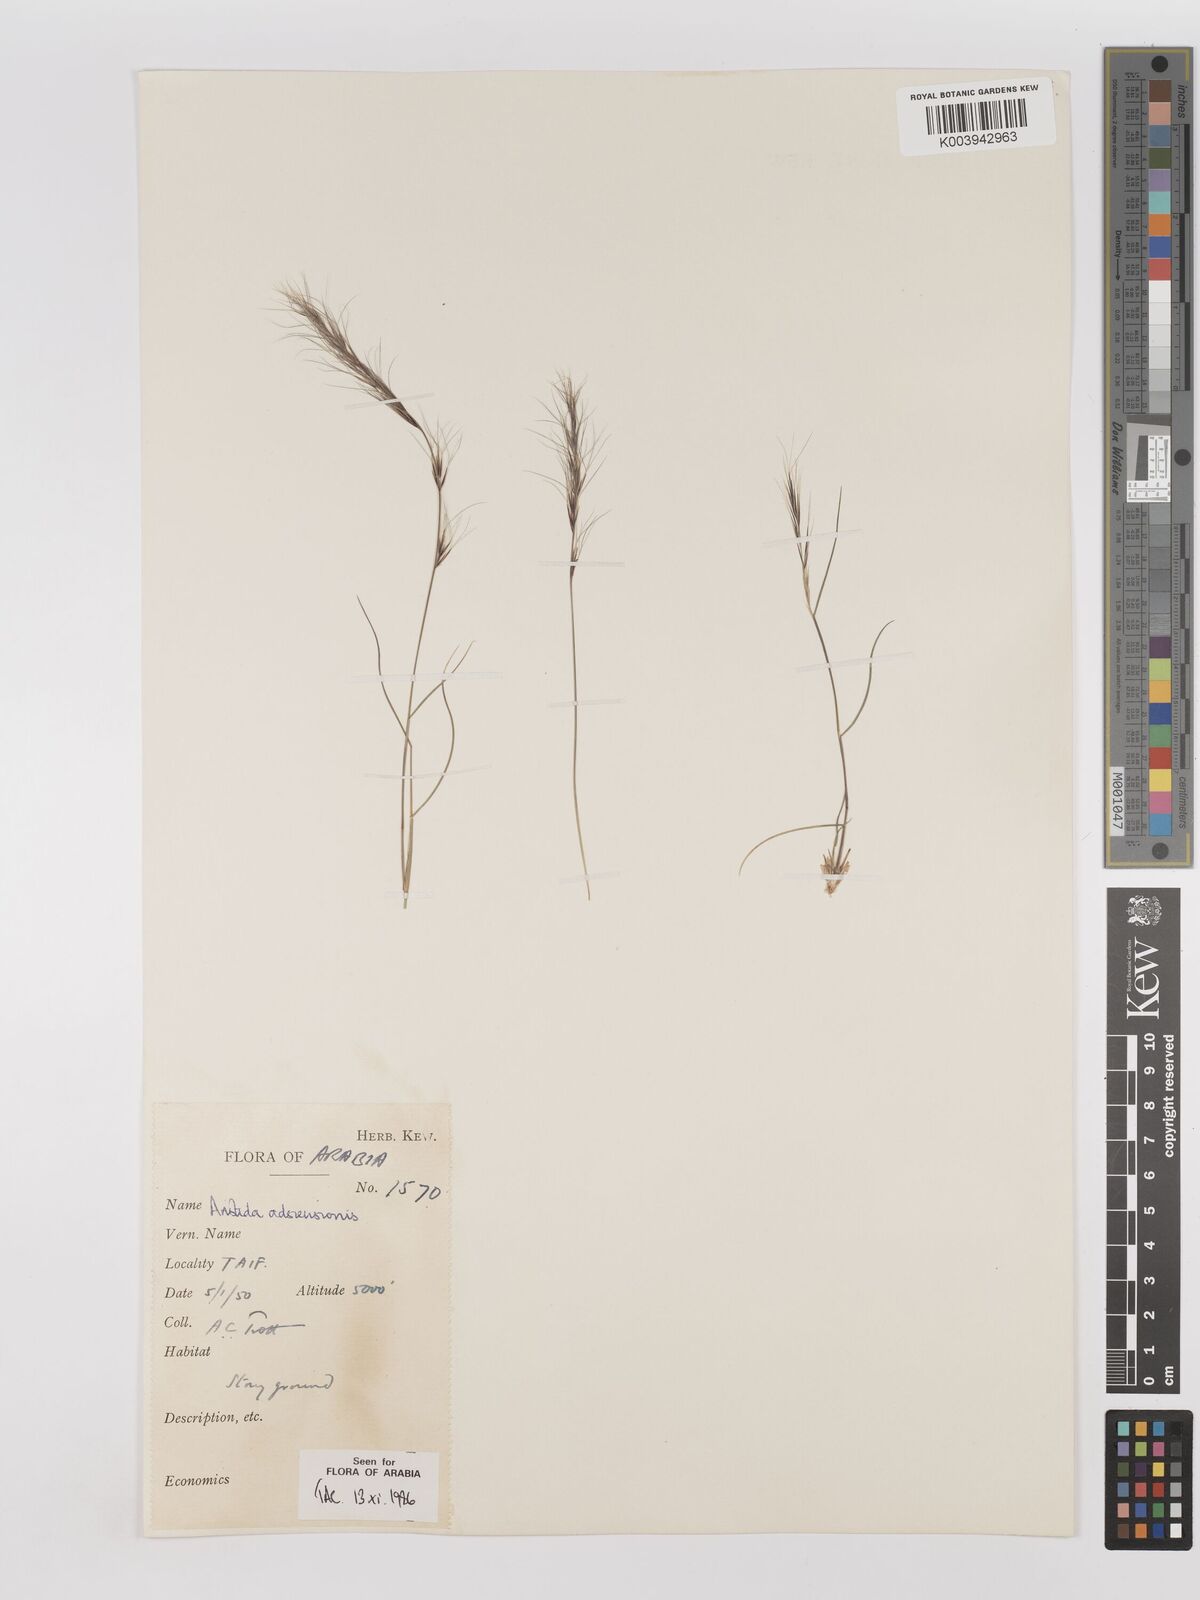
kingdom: Plantae
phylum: Tracheophyta
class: Liliopsida
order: Poales
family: Poaceae
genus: Aristida
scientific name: Aristida adscensionis
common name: Sixweeks threeawn
